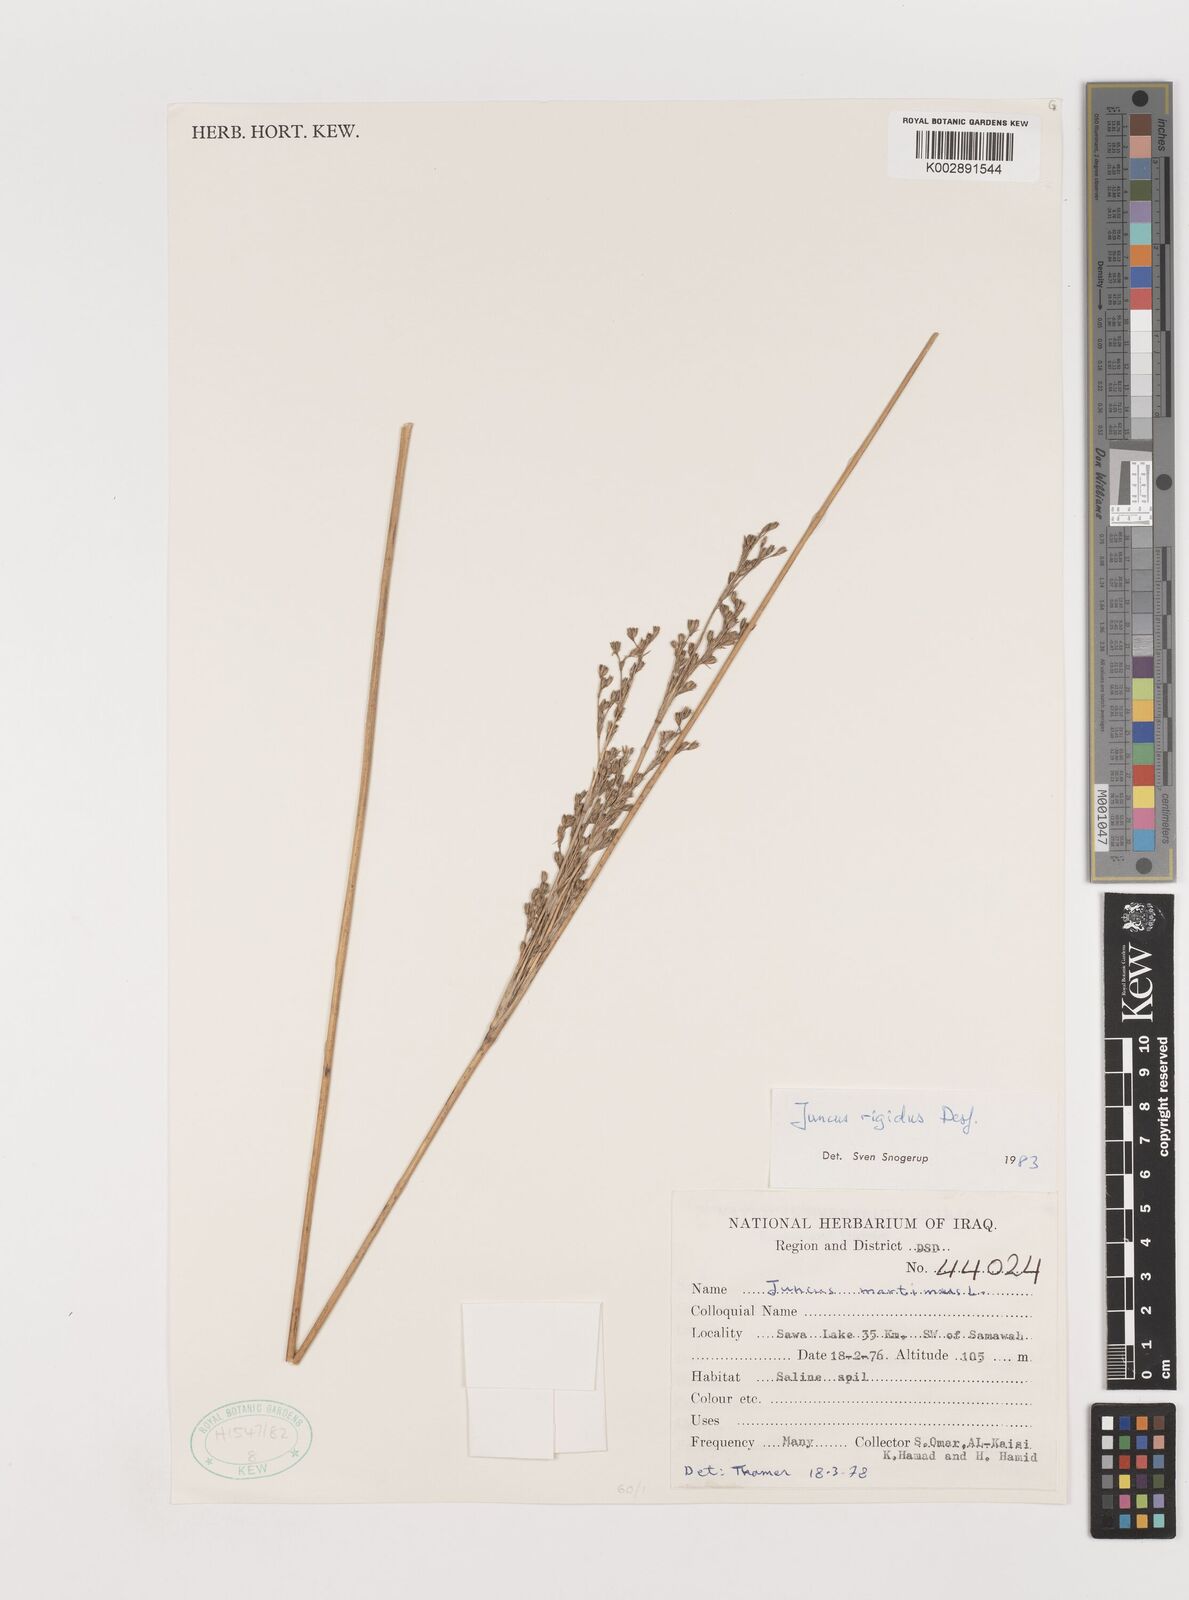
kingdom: Plantae
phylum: Tracheophyta
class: Liliopsida
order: Poales
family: Juncaceae
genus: Juncus
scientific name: Juncus rigidus
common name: Hard sea rush
